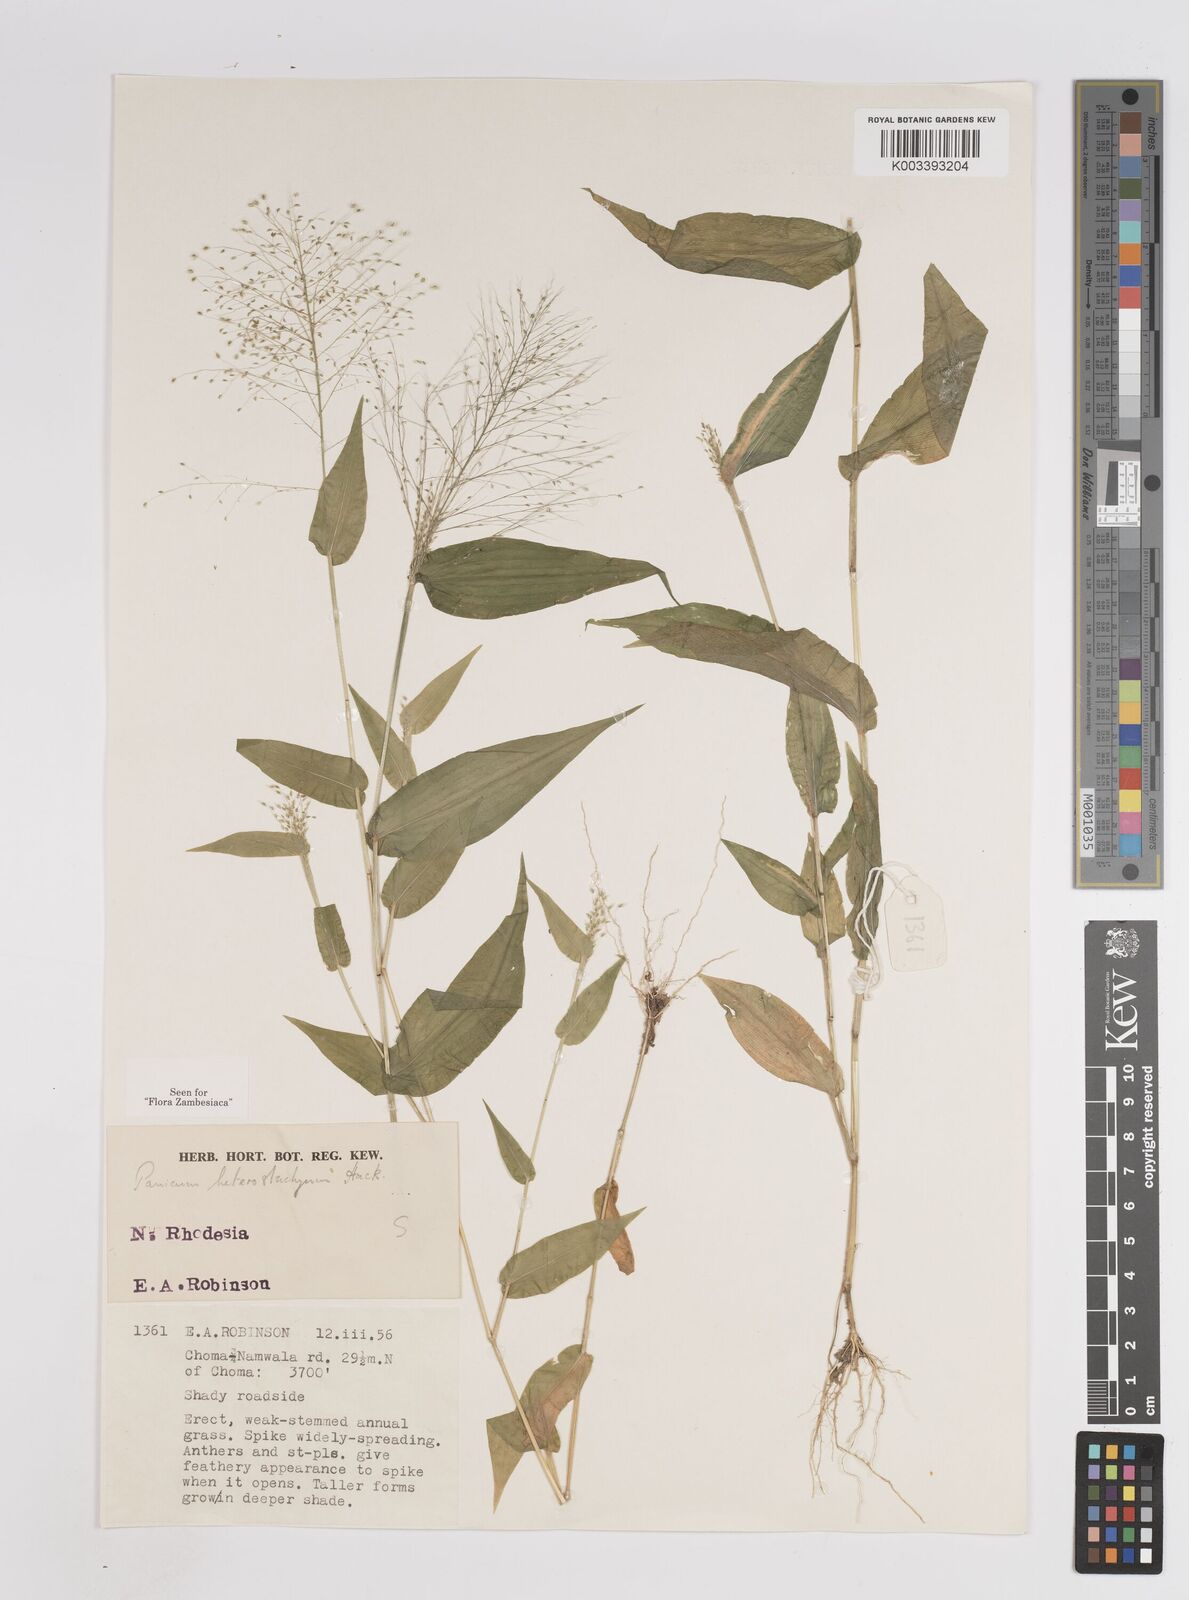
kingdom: Plantae
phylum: Tracheophyta
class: Liliopsida
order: Poales
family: Poaceae
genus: Panicum
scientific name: Panicum hirtum
